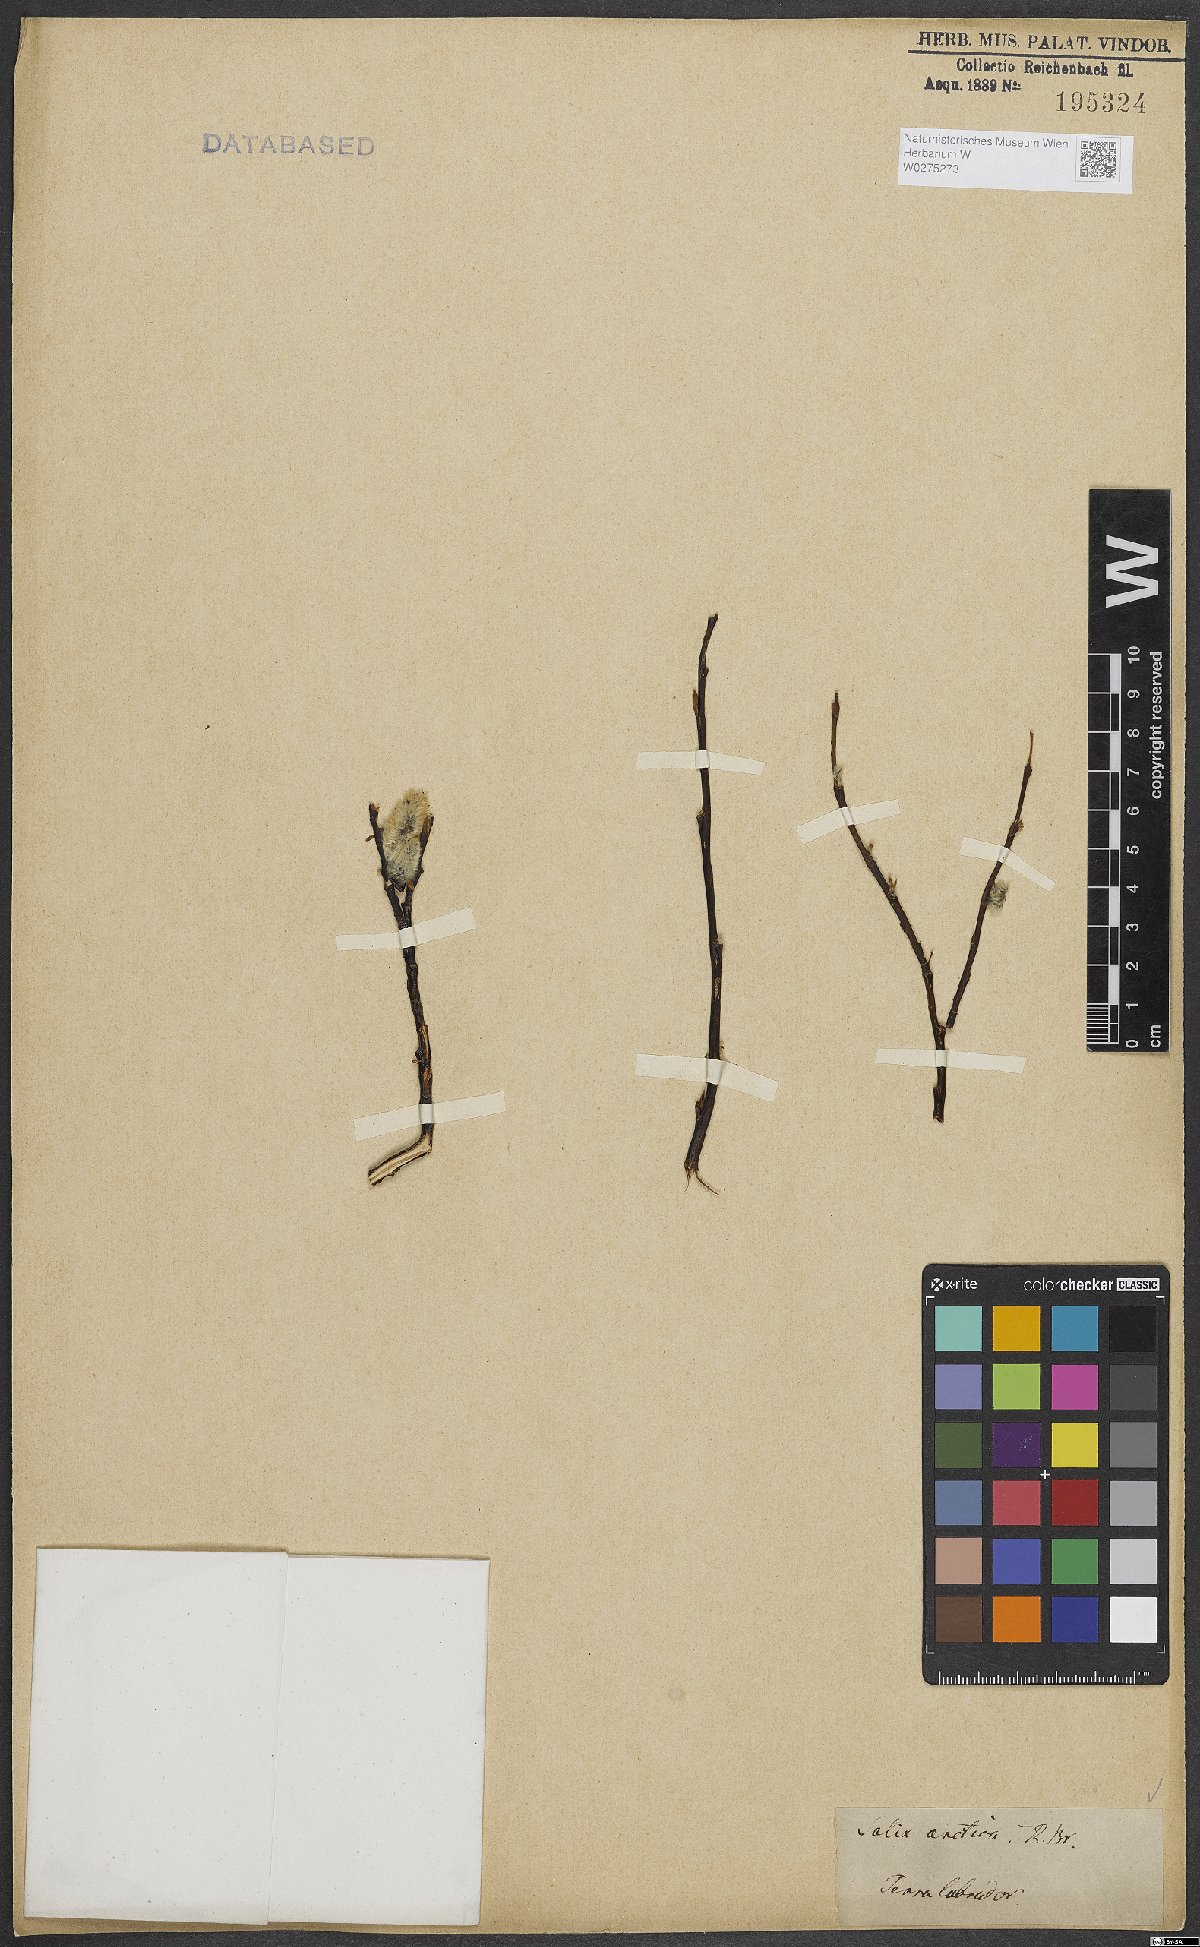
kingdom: Plantae
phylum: Tracheophyta
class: Magnoliopsida
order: Malpighiales
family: Salicaceae
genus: Salix
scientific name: Salix arctica
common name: Arctic willow
